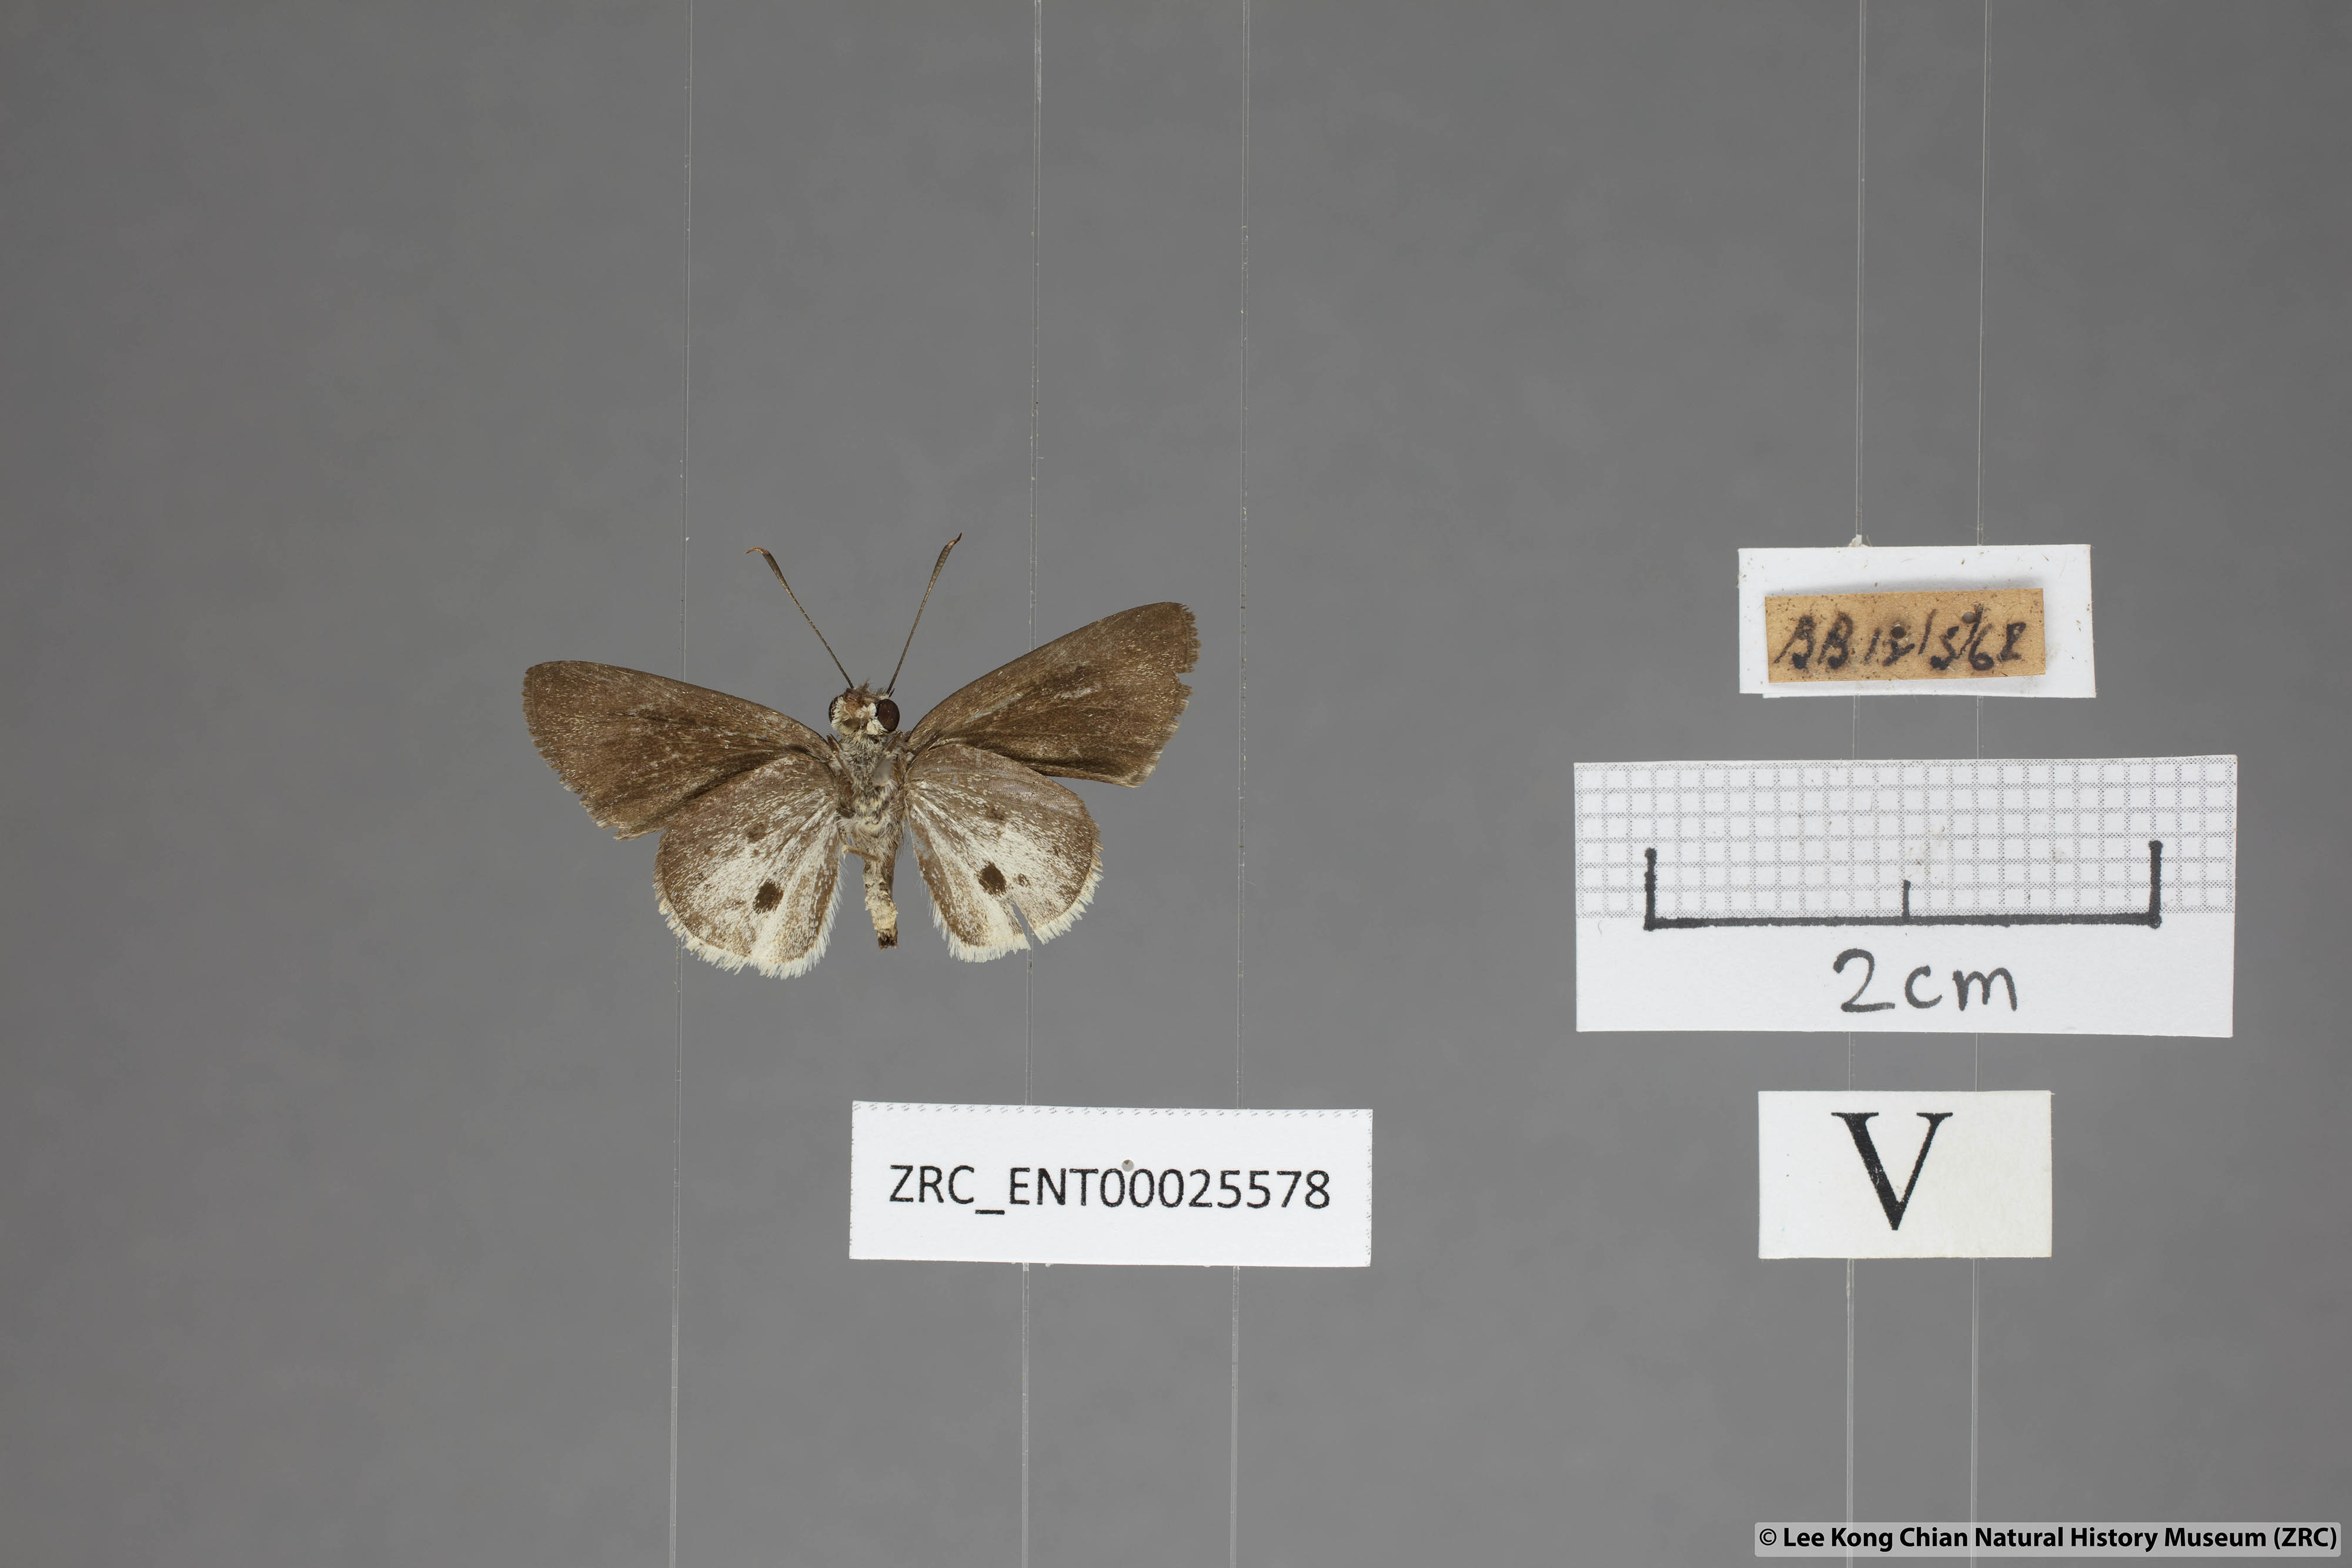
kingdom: Animalia
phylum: Arthropoda
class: Insecta
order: Lepidoptera
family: Hesperiidae
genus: Suastus
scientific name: Suastus everyx
